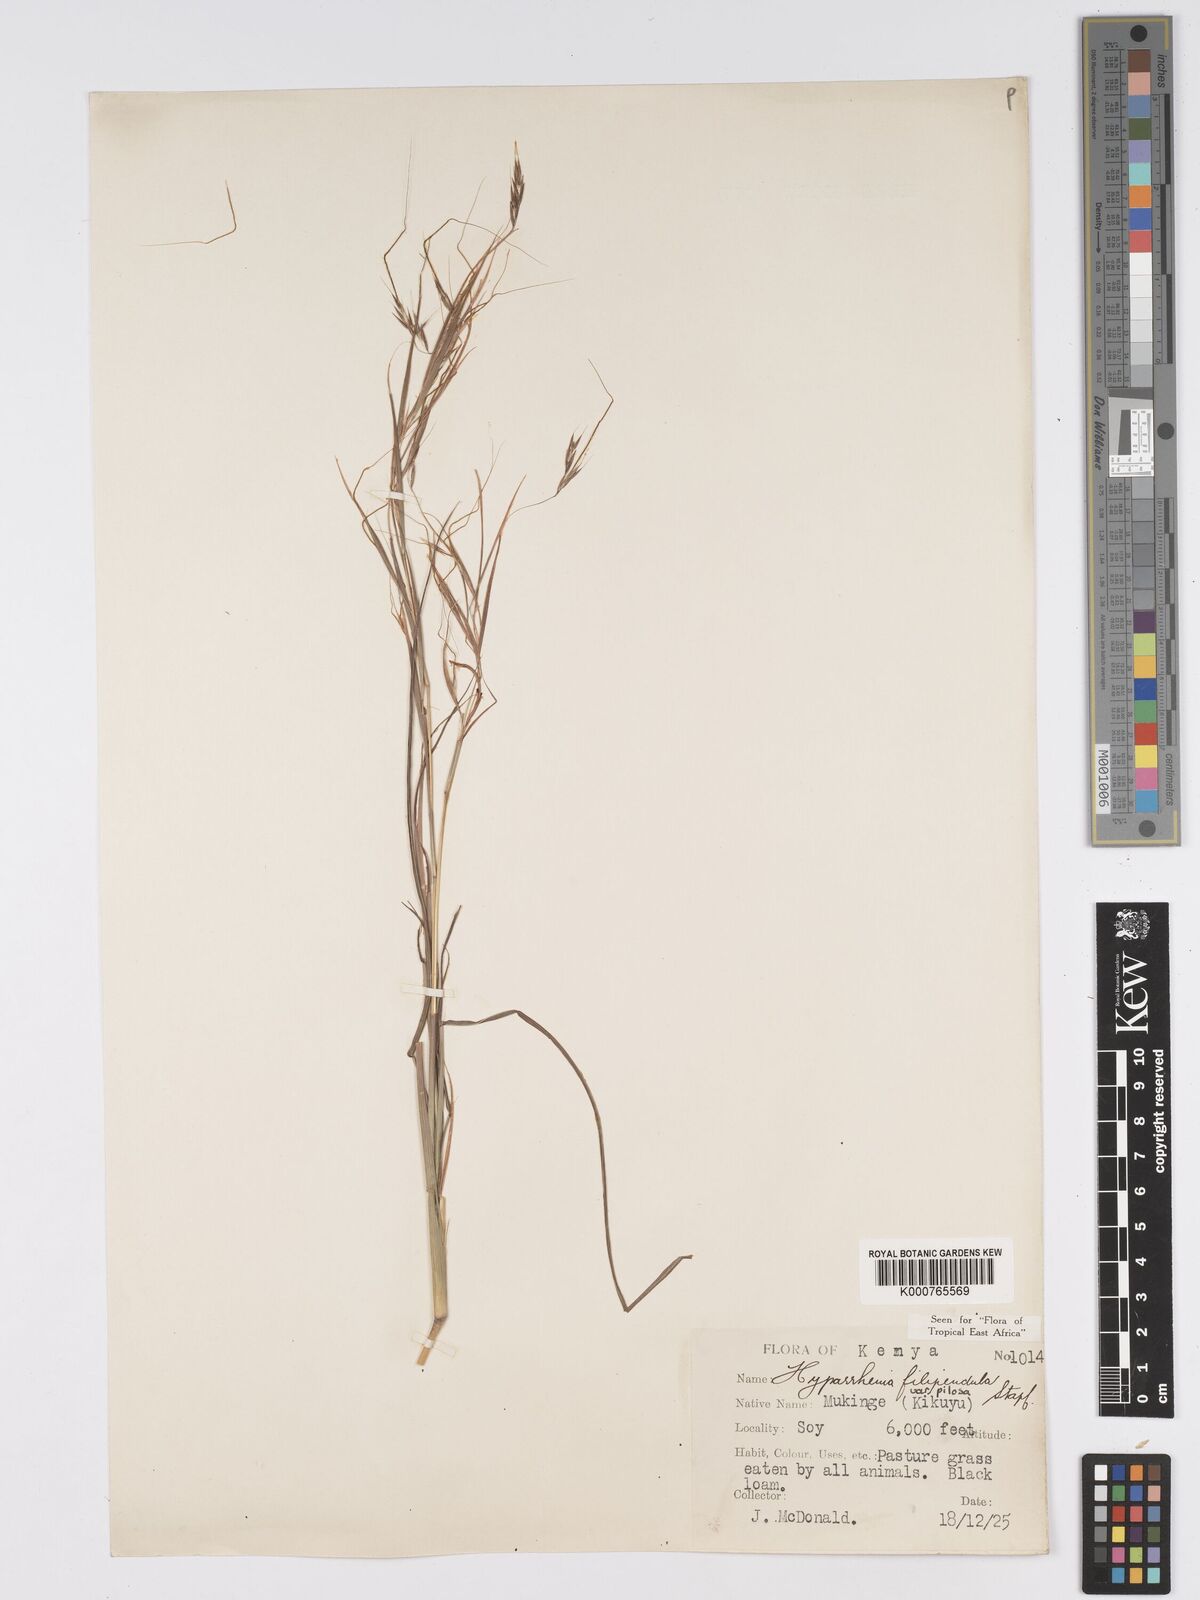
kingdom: Plantae
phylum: Tracheophyta
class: Liliopsida
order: Poales
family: Poaceae
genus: Hyparrhenia
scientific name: Hyparrhenia filipendula
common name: Tambookie grass
